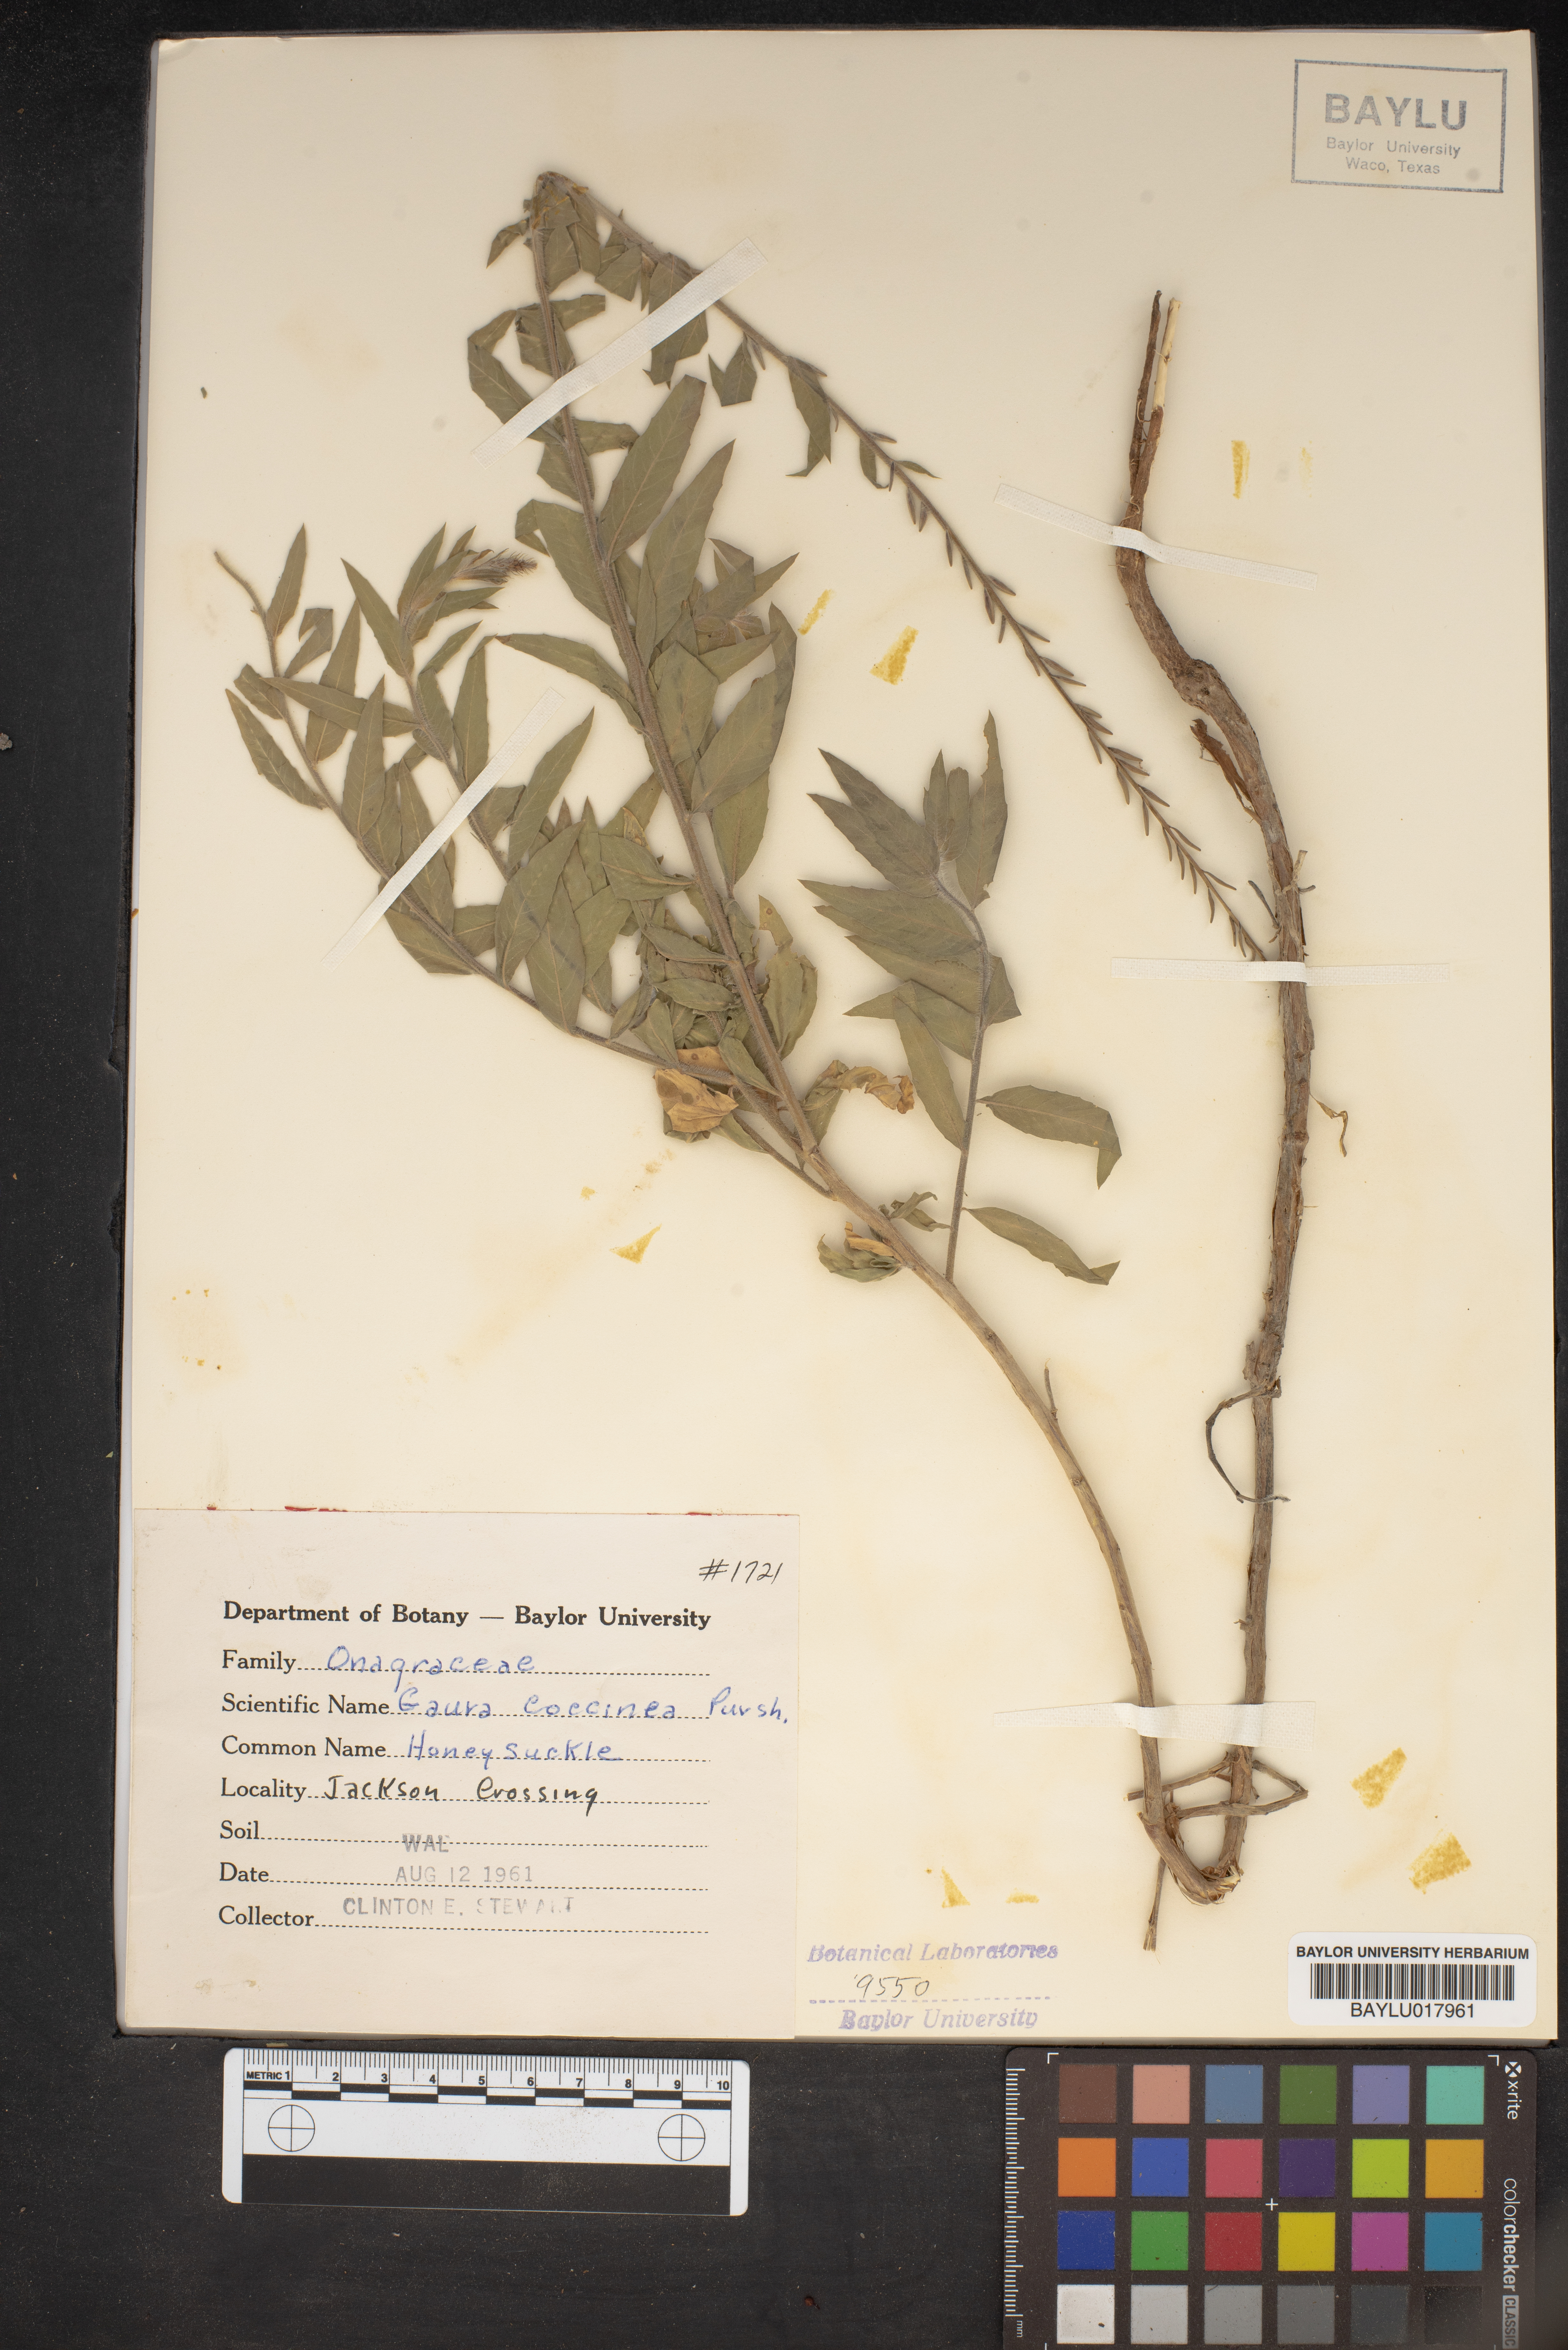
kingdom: Plantae
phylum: Tracheophyta
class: Magnoliopsida
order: Myrtales
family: Onagraceae
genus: Oenothera
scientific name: Oenothera suffrutescens
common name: Scarlet beeblossom
